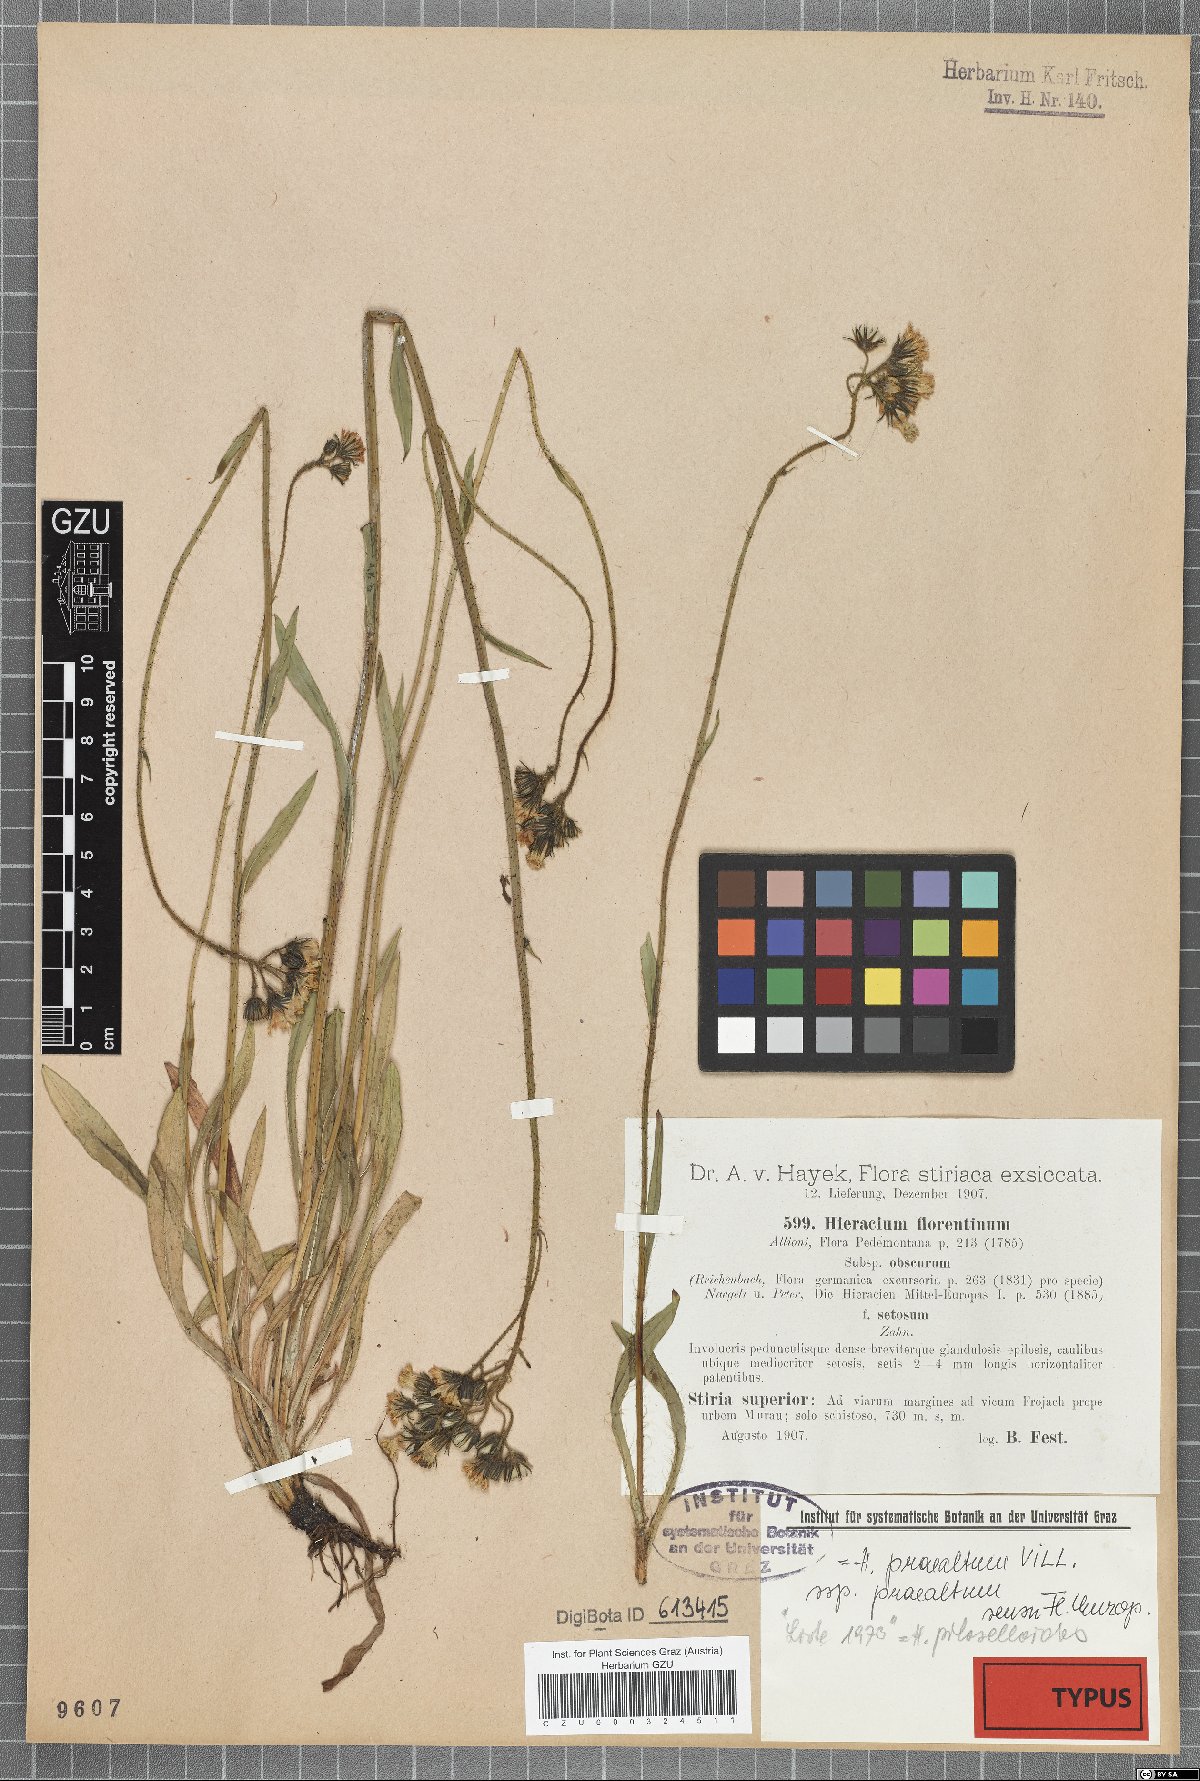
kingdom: Plantae
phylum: Tracheophyta
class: Magnoliopsida
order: Asterales
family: Asteraceae
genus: Hieracium
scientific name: Hieracium florentinum
